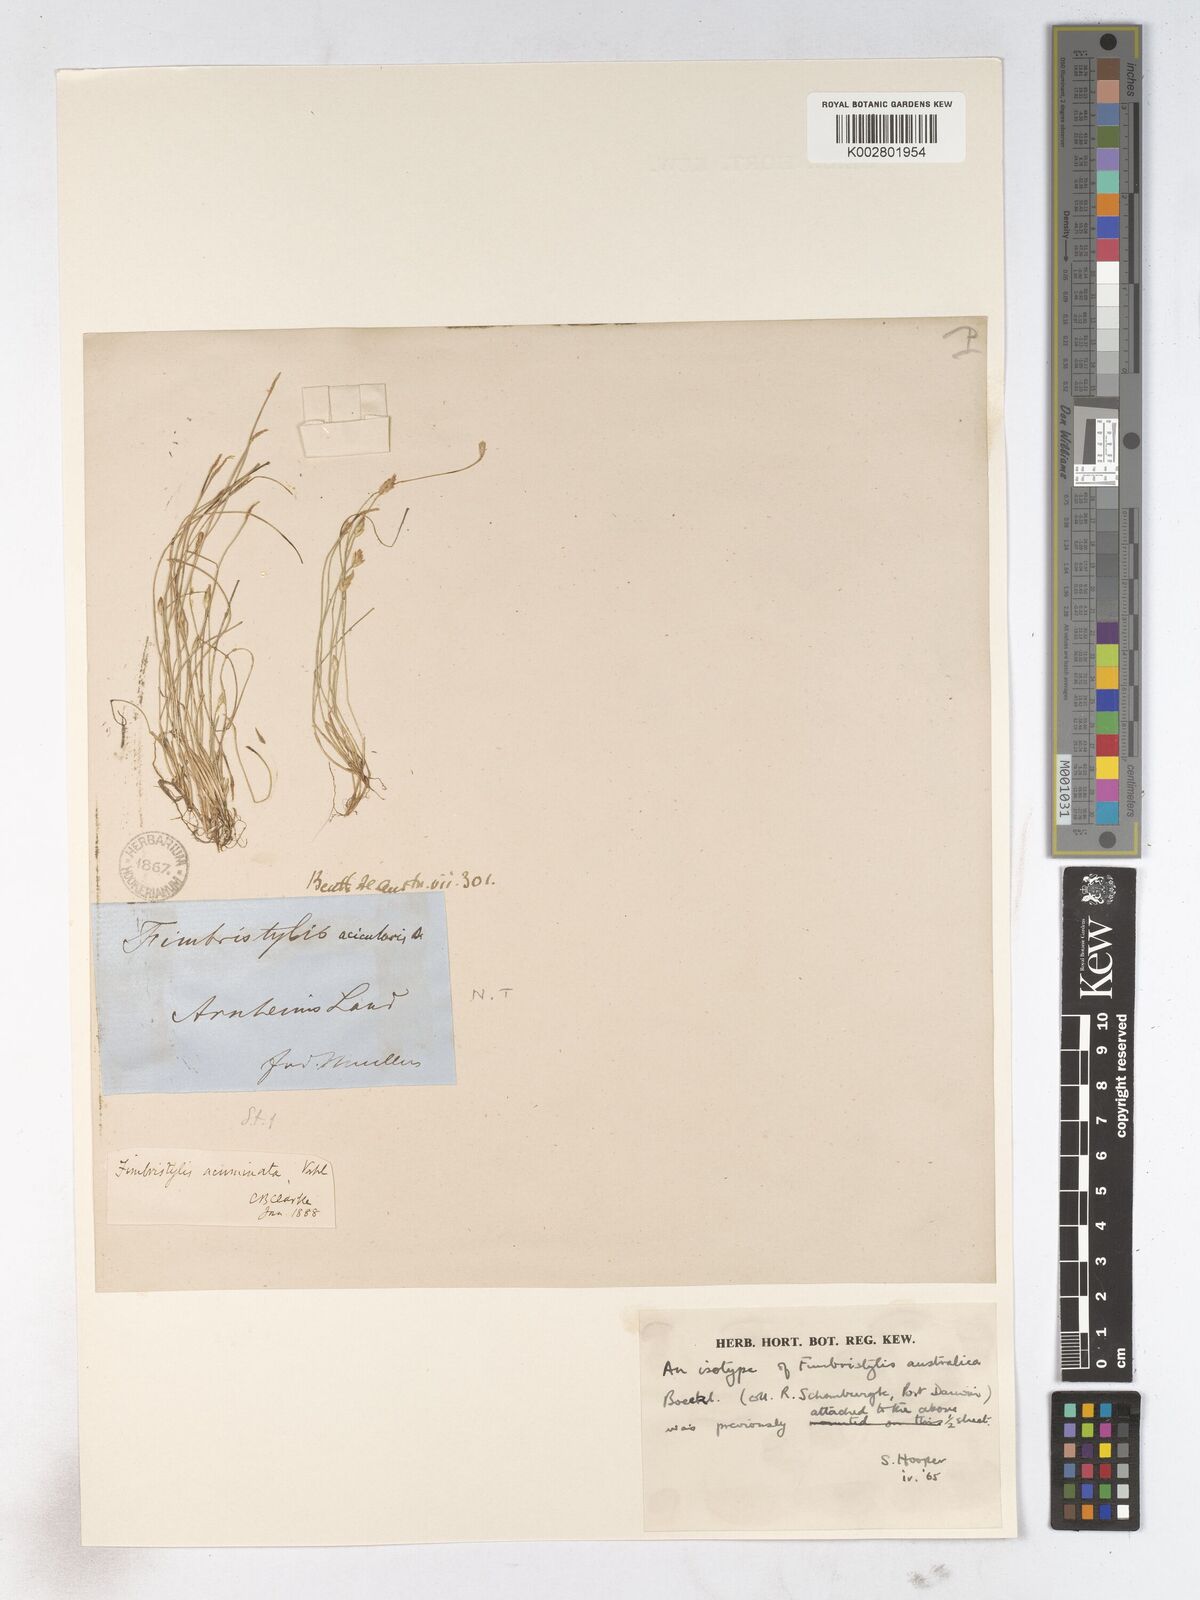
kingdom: Plantae
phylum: Tracheophyta
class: Liliopsida
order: Poales
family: Cyperaceae
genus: Fimbristylis
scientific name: Fimbristylis acicularis
